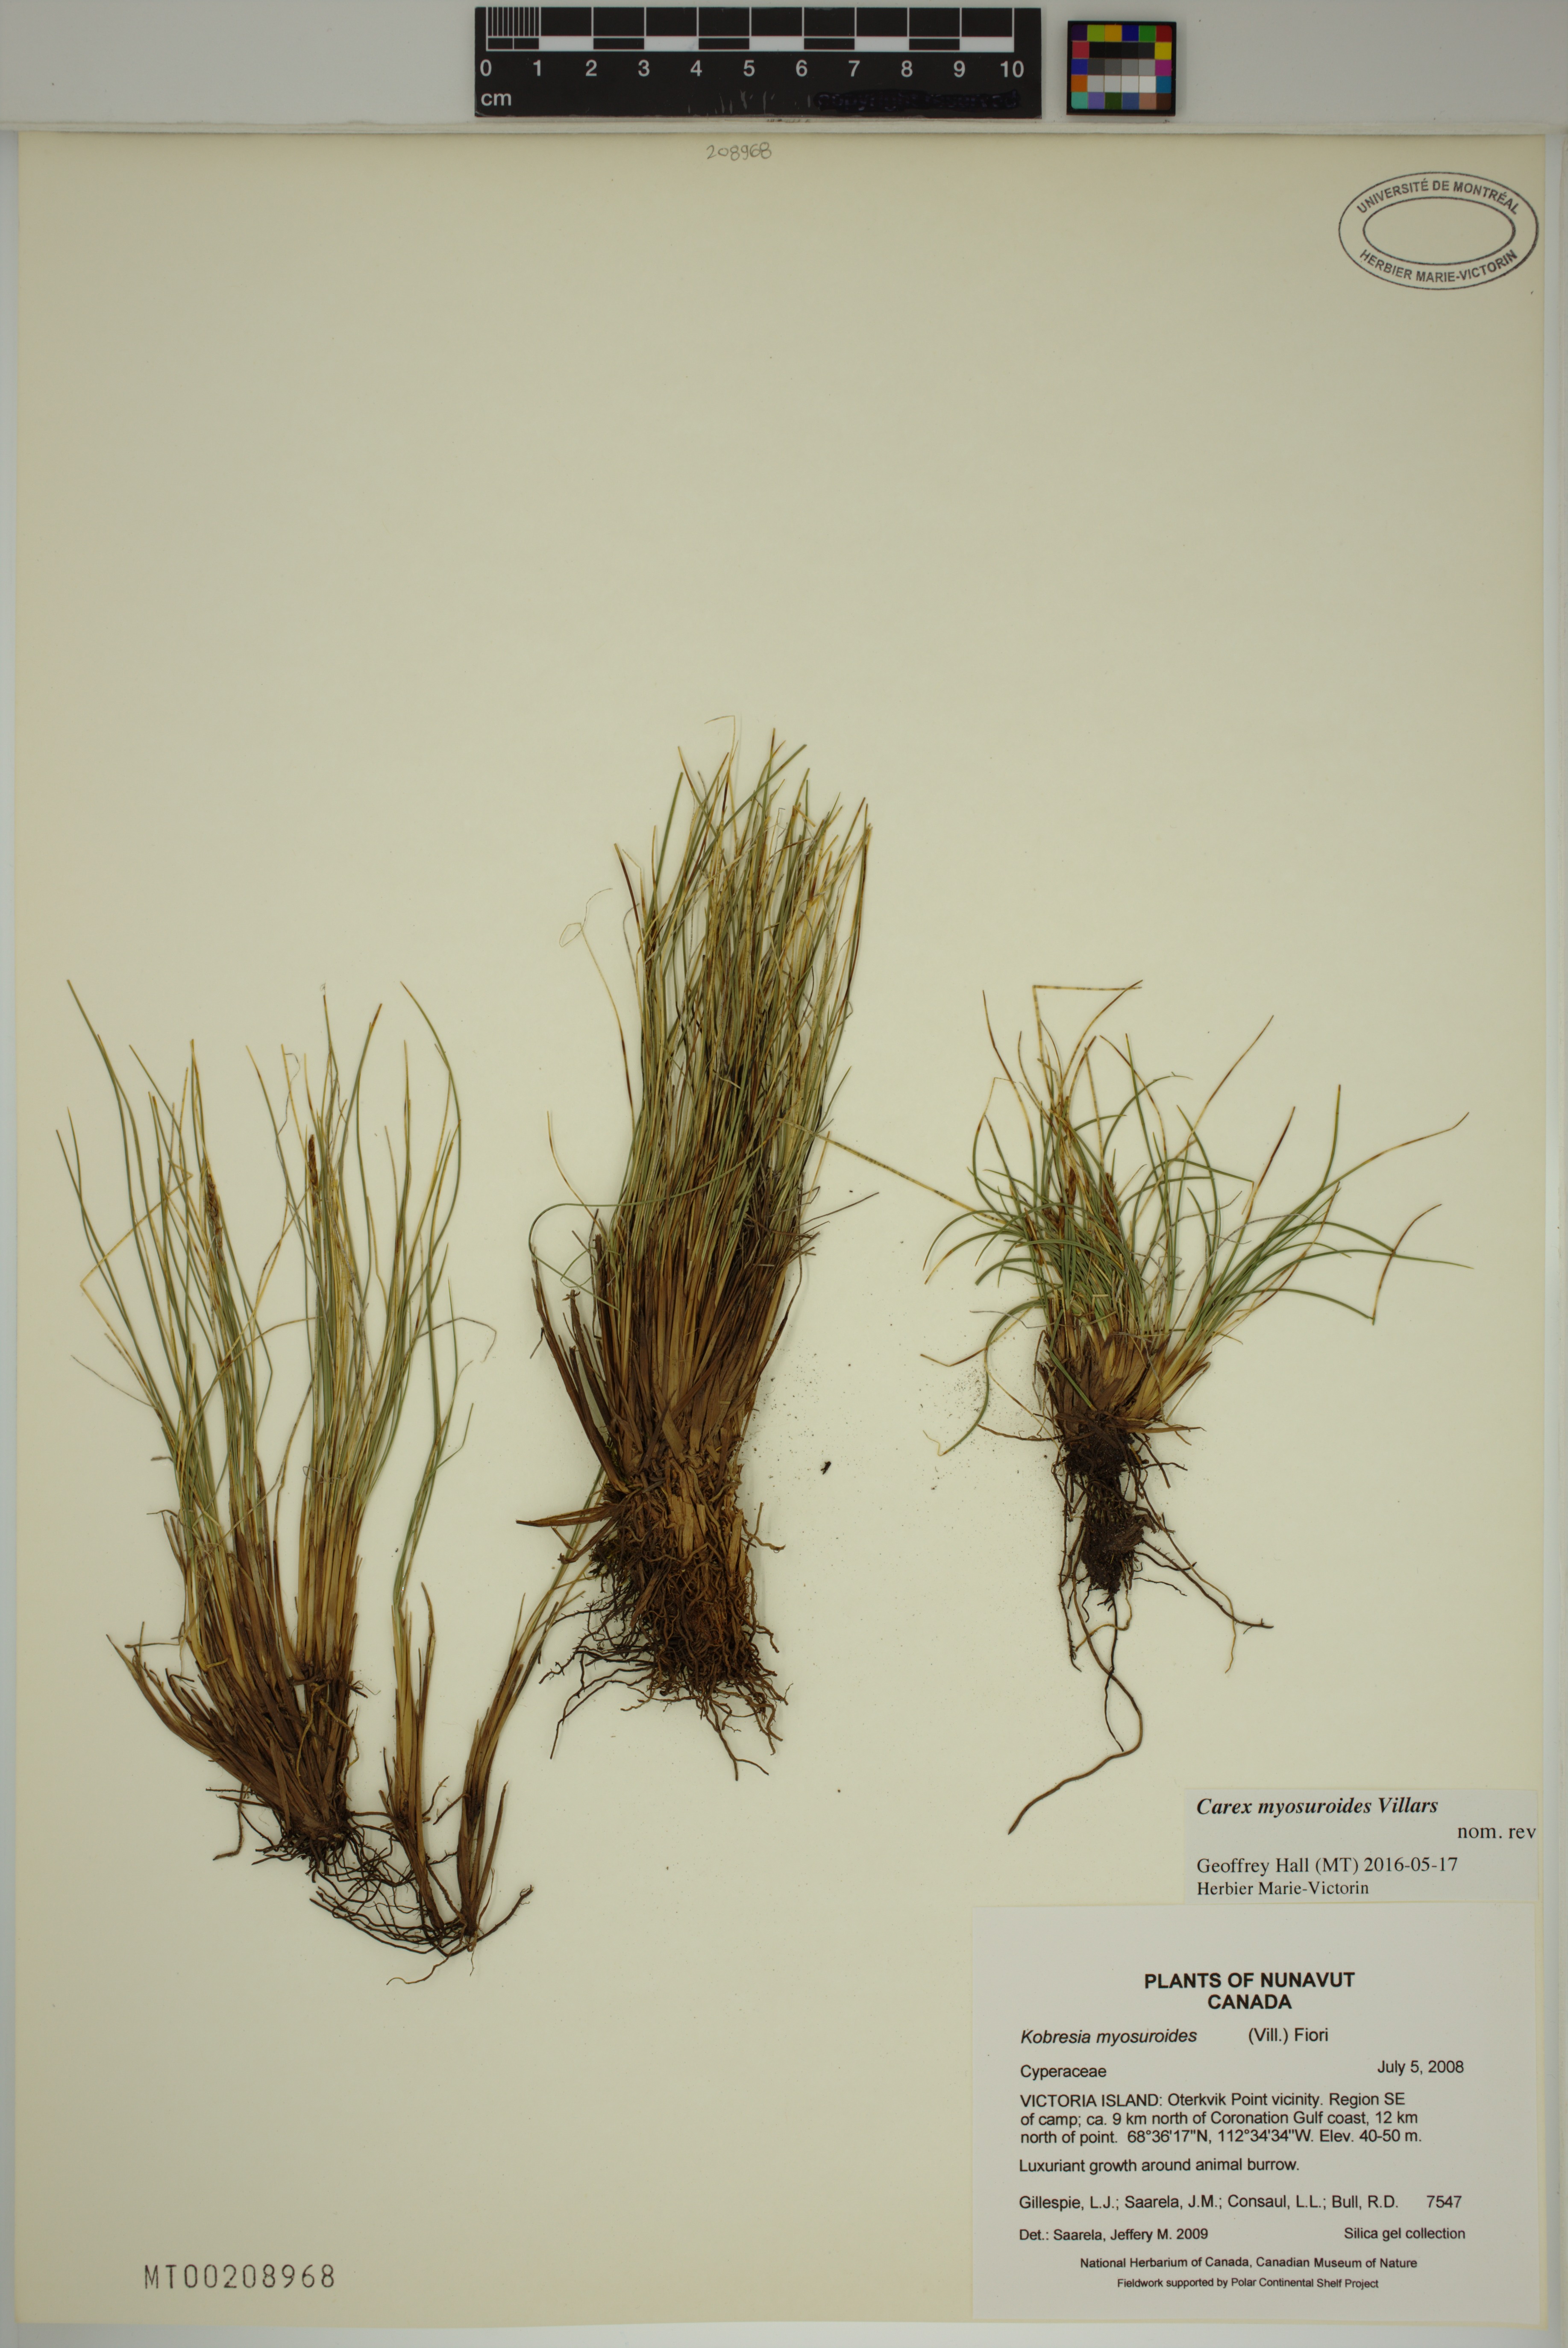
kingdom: Plantae
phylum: Tracheophyta
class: Liliopsida
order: Poales
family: Cyperaceae
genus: Carex
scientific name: Carex myosuroides
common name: Bellard's bog sedge
